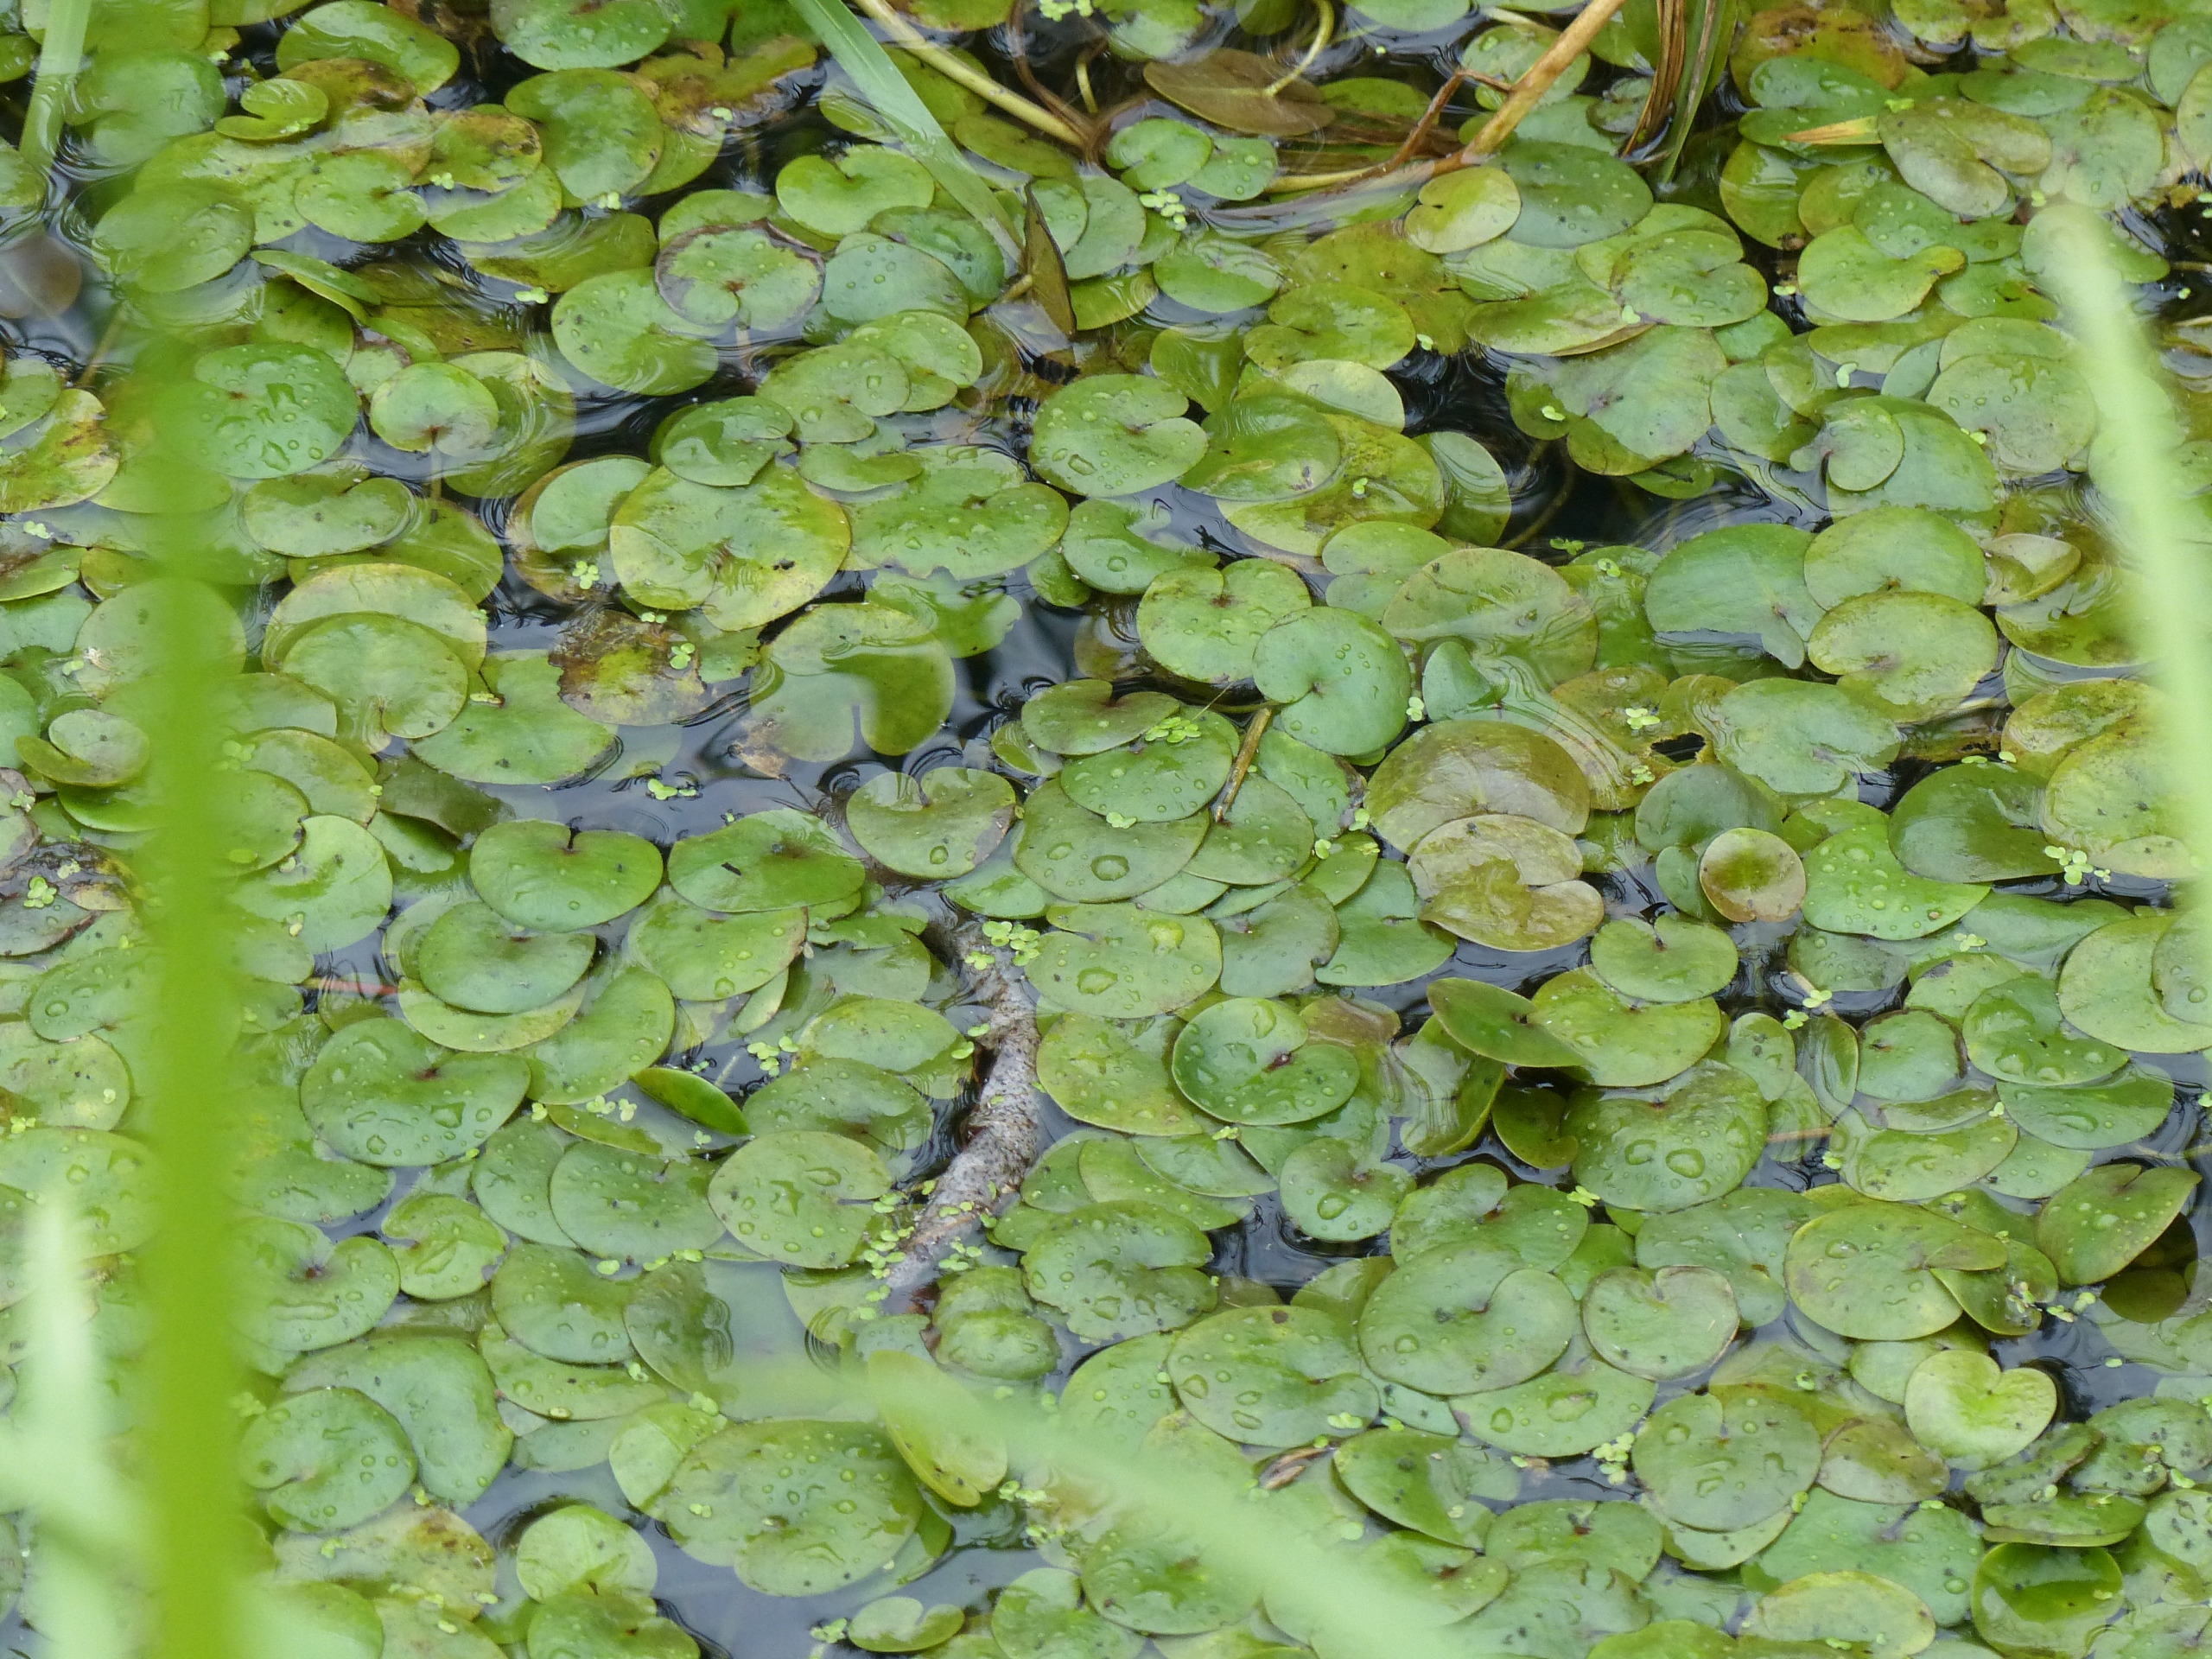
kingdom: Plantae
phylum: Tracheophyta
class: Liliopsida
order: Alismatales
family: Hydrocharitaceae
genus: Hydrocharis
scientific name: Hydrocharis morsus-ranae
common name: Frøbid
